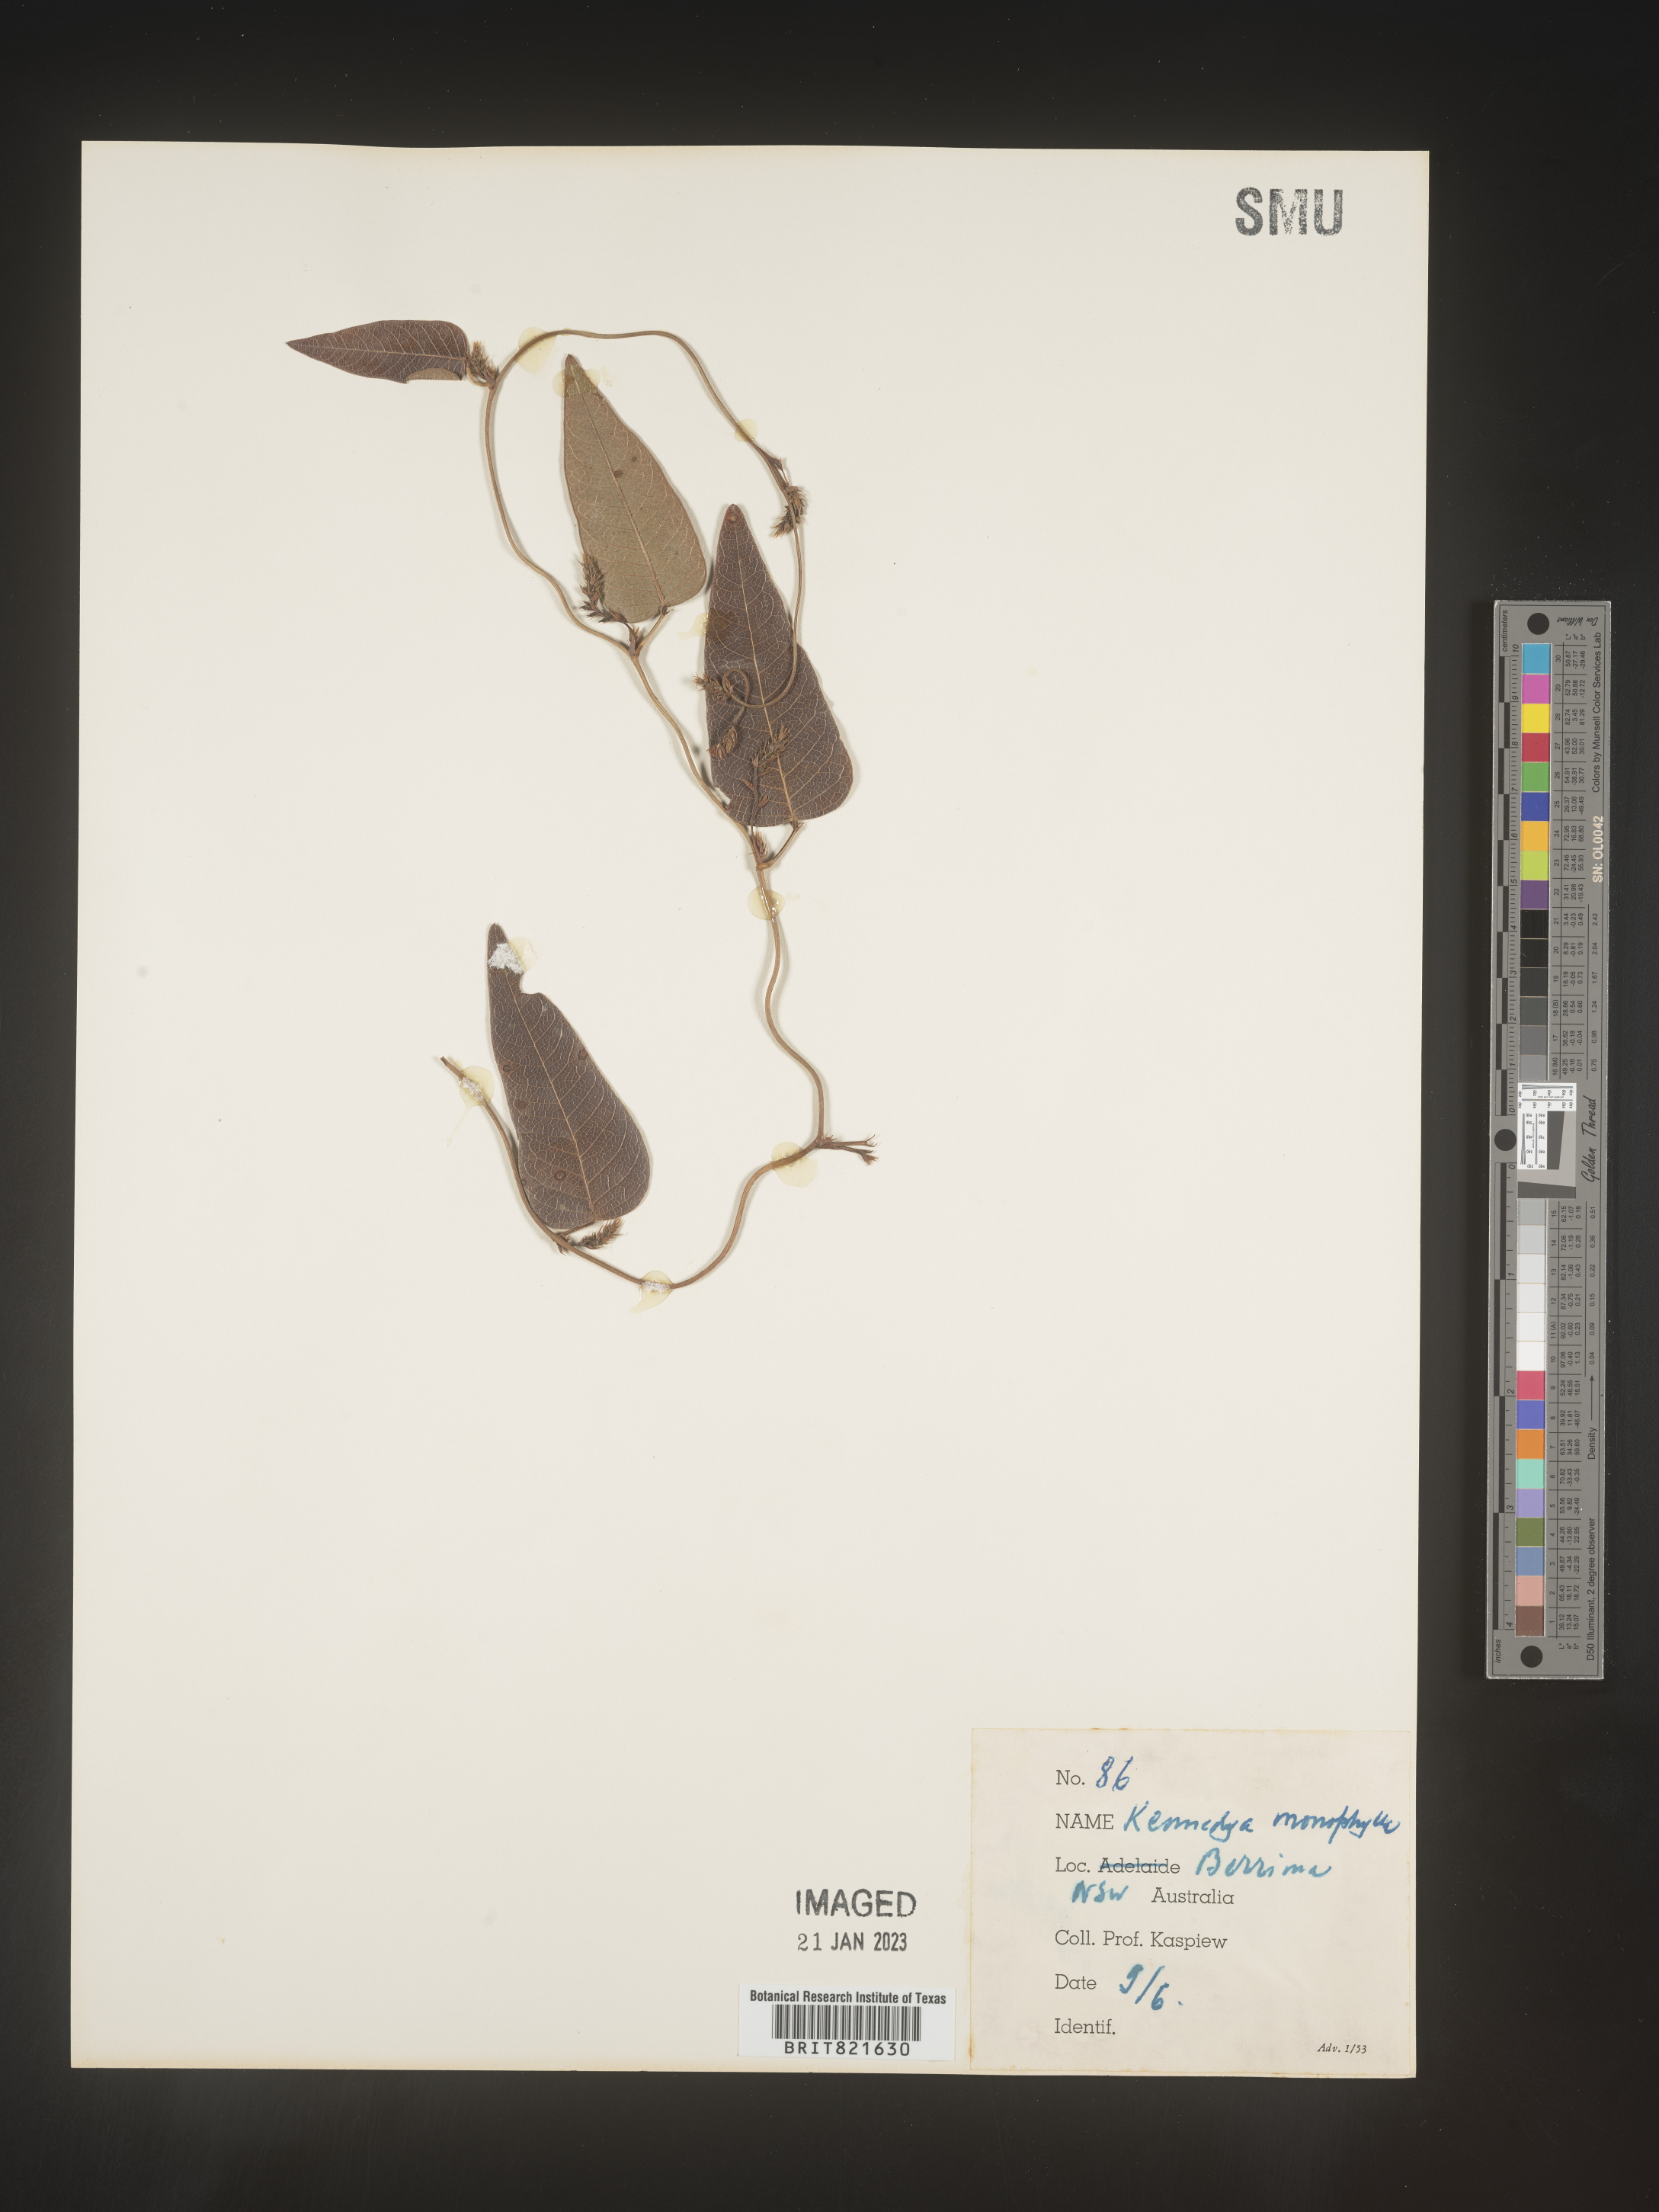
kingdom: Plantae
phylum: Tracheophyta
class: Magnoliopsida
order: Fabales
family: Fabaceae
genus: Kennedya
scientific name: Kennedya
